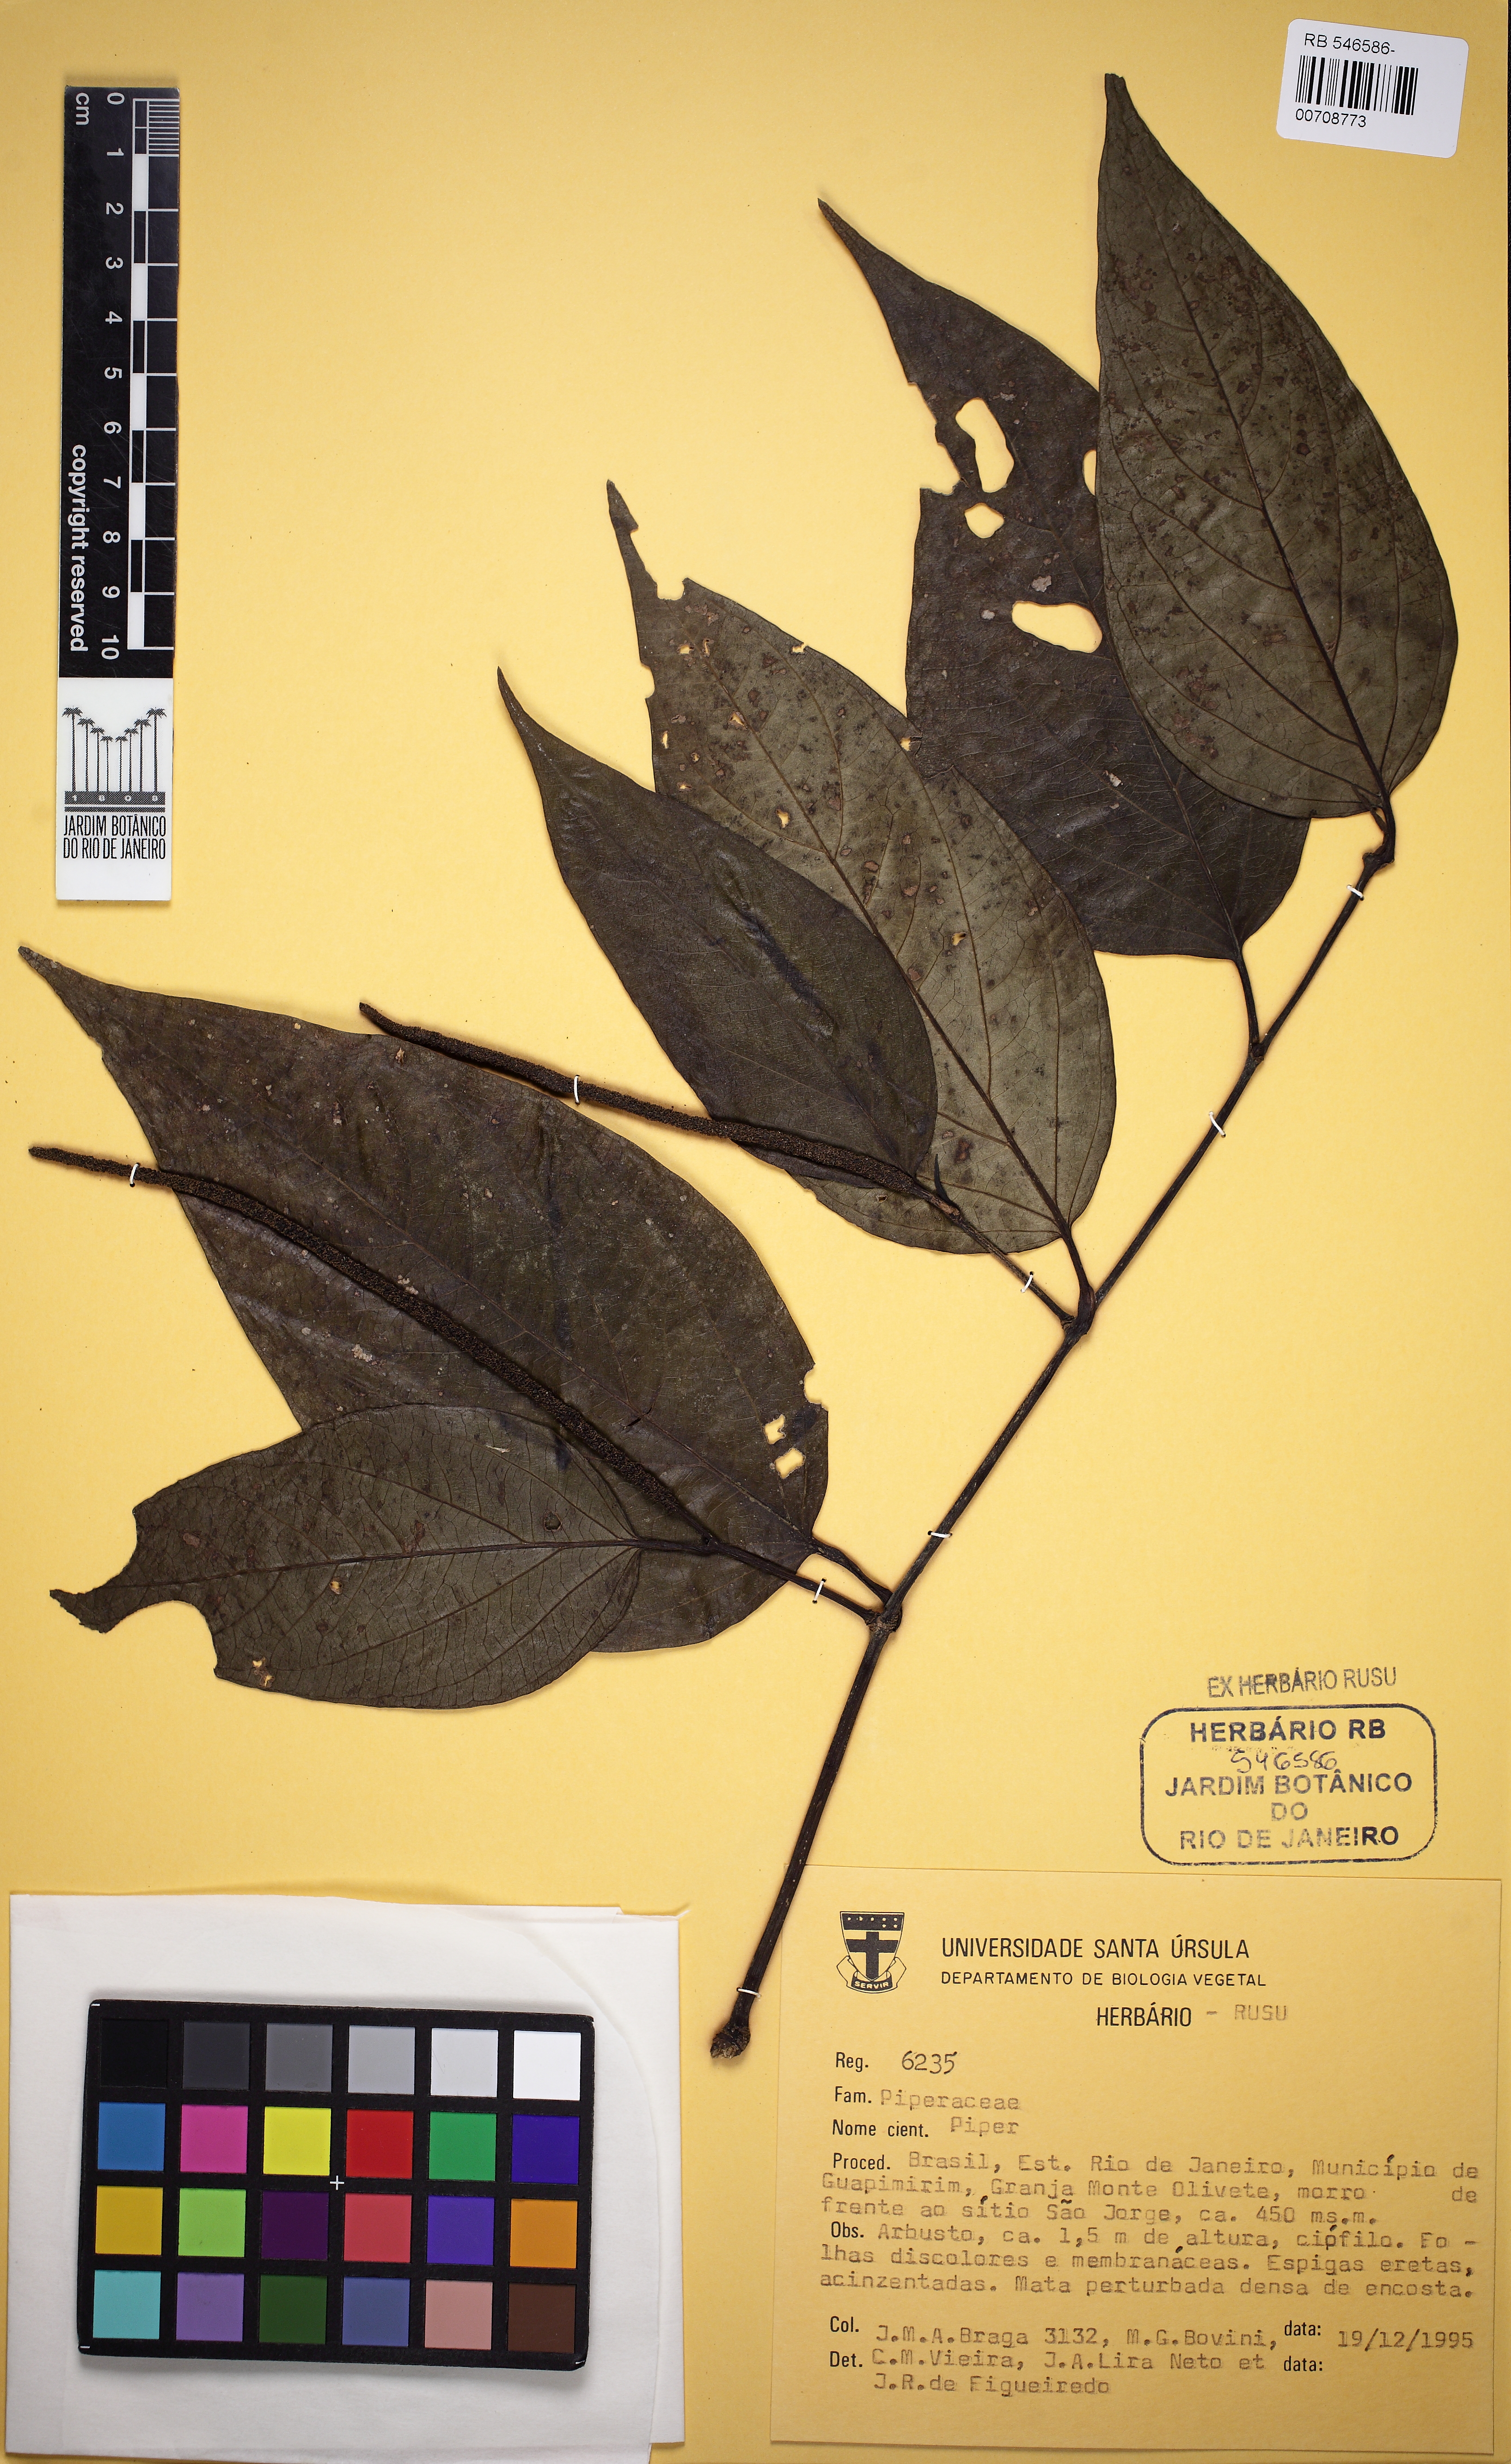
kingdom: Plantae
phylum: Tracheophyta
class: Magnoliopsida
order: Piperales
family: Piperaceae
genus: Piper
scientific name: Piper lepturum
